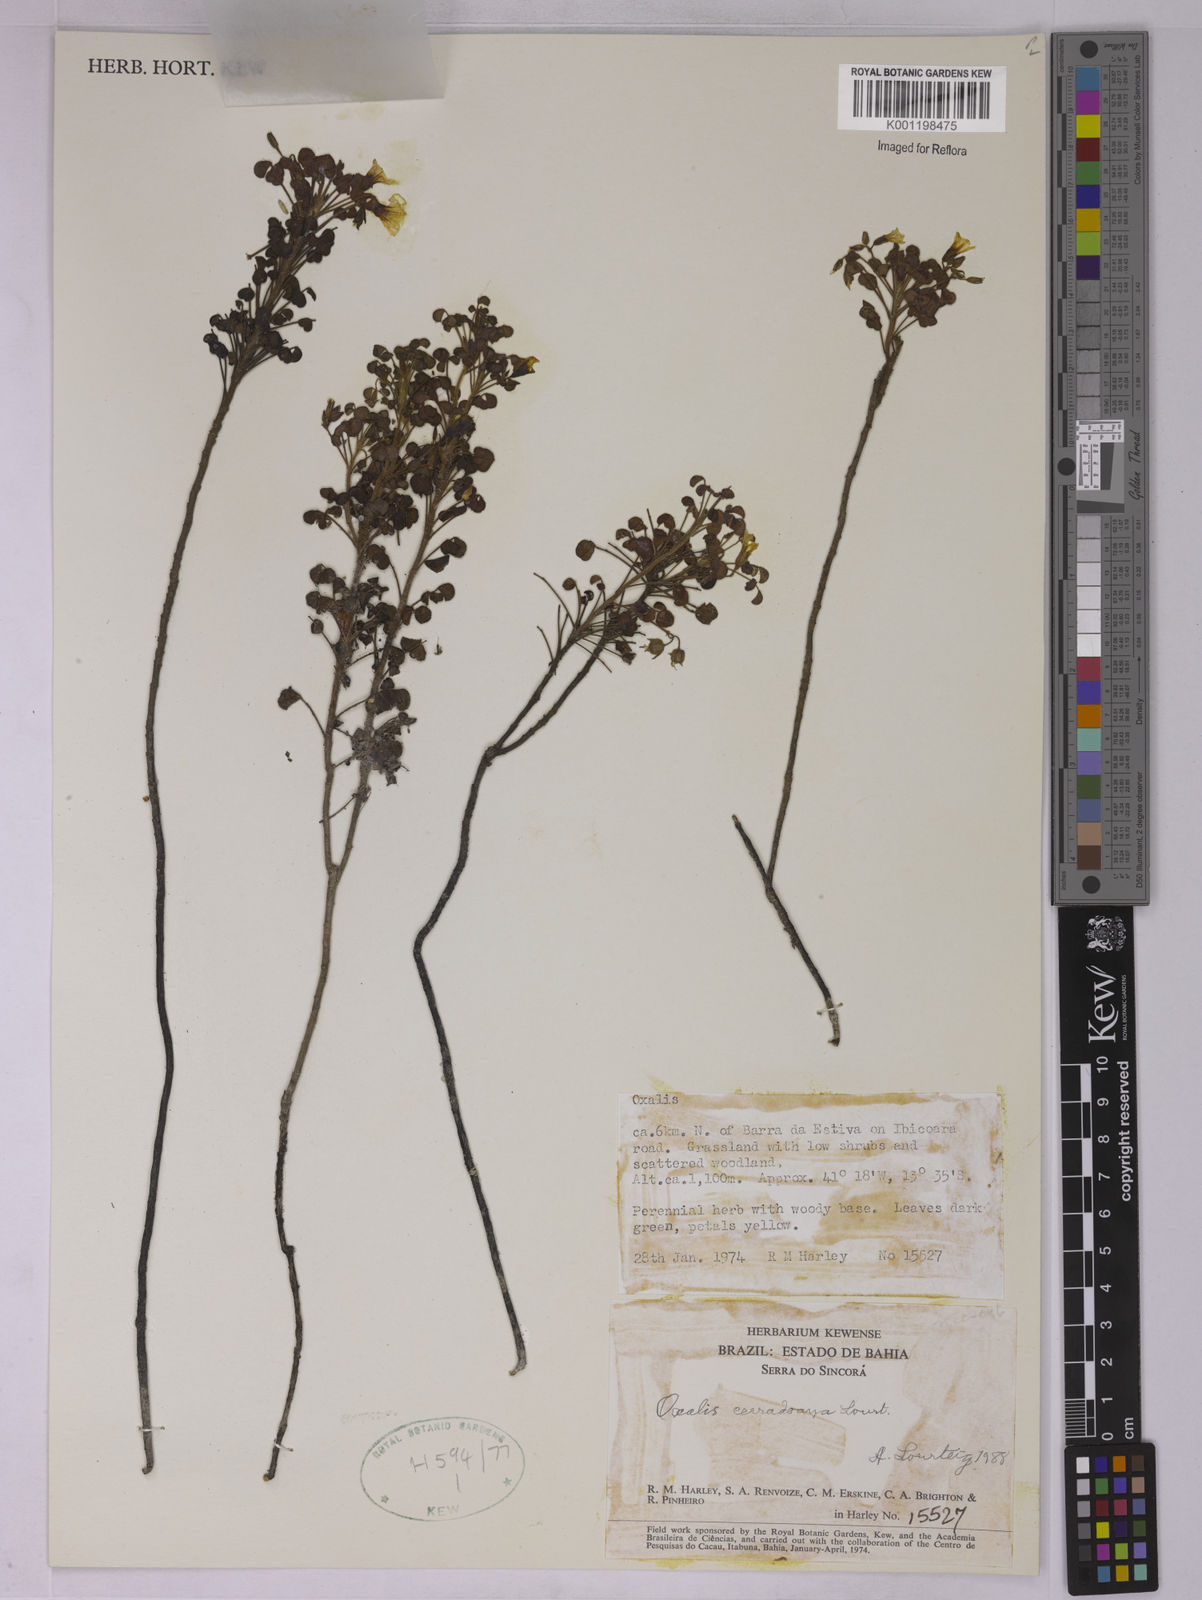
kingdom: Plantae
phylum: Tracheophyta
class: Magnoliopsida
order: Oxalidales
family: Oxalidaceae
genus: Oxalis
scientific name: Oxalis cerradoana
